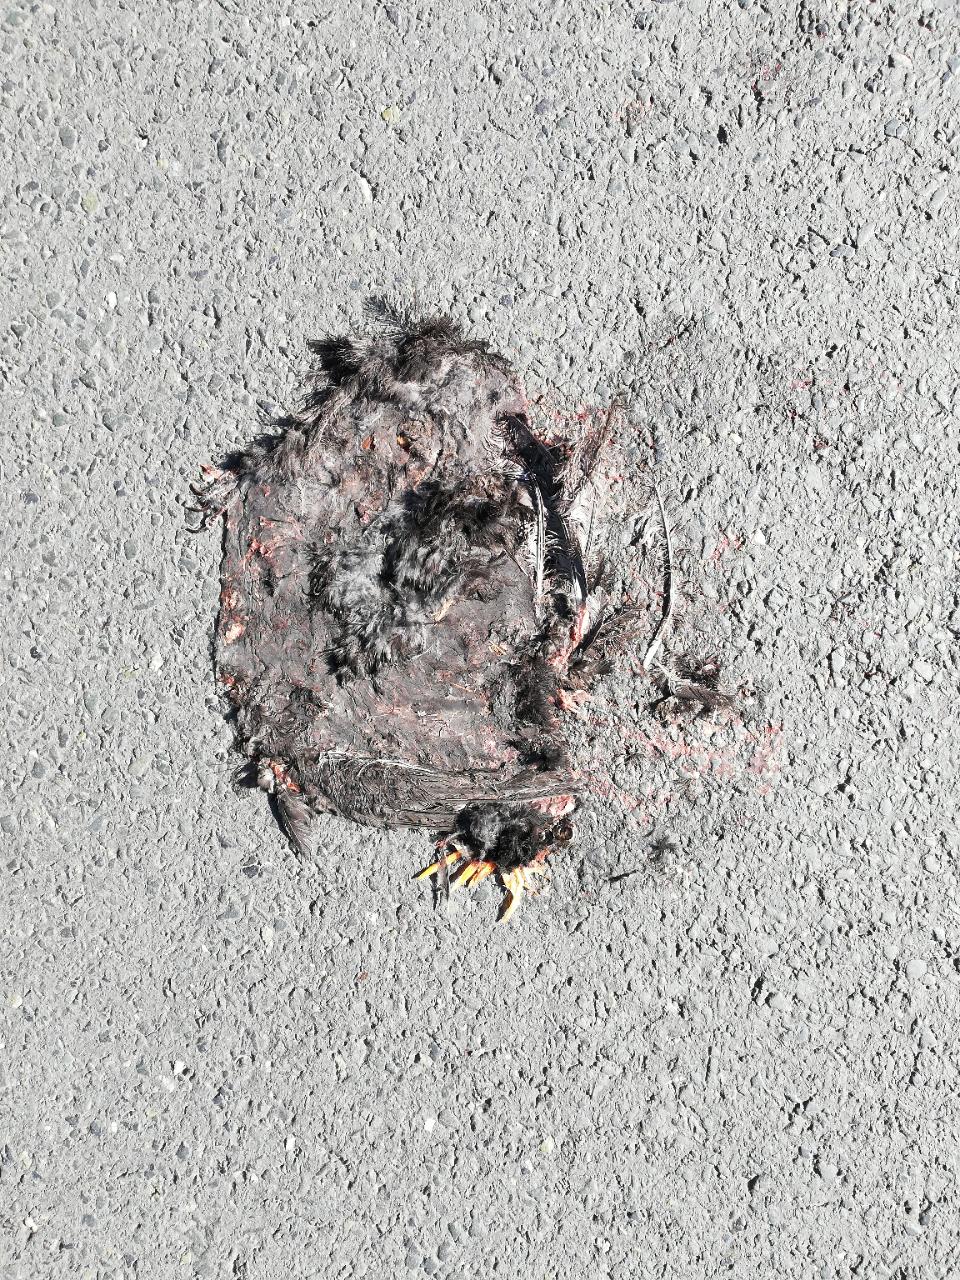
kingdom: Animalia
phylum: Chordata
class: Aves
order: Passeriformes
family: Turdidae
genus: Turdus
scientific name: Turdus merula
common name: Common blackbird
